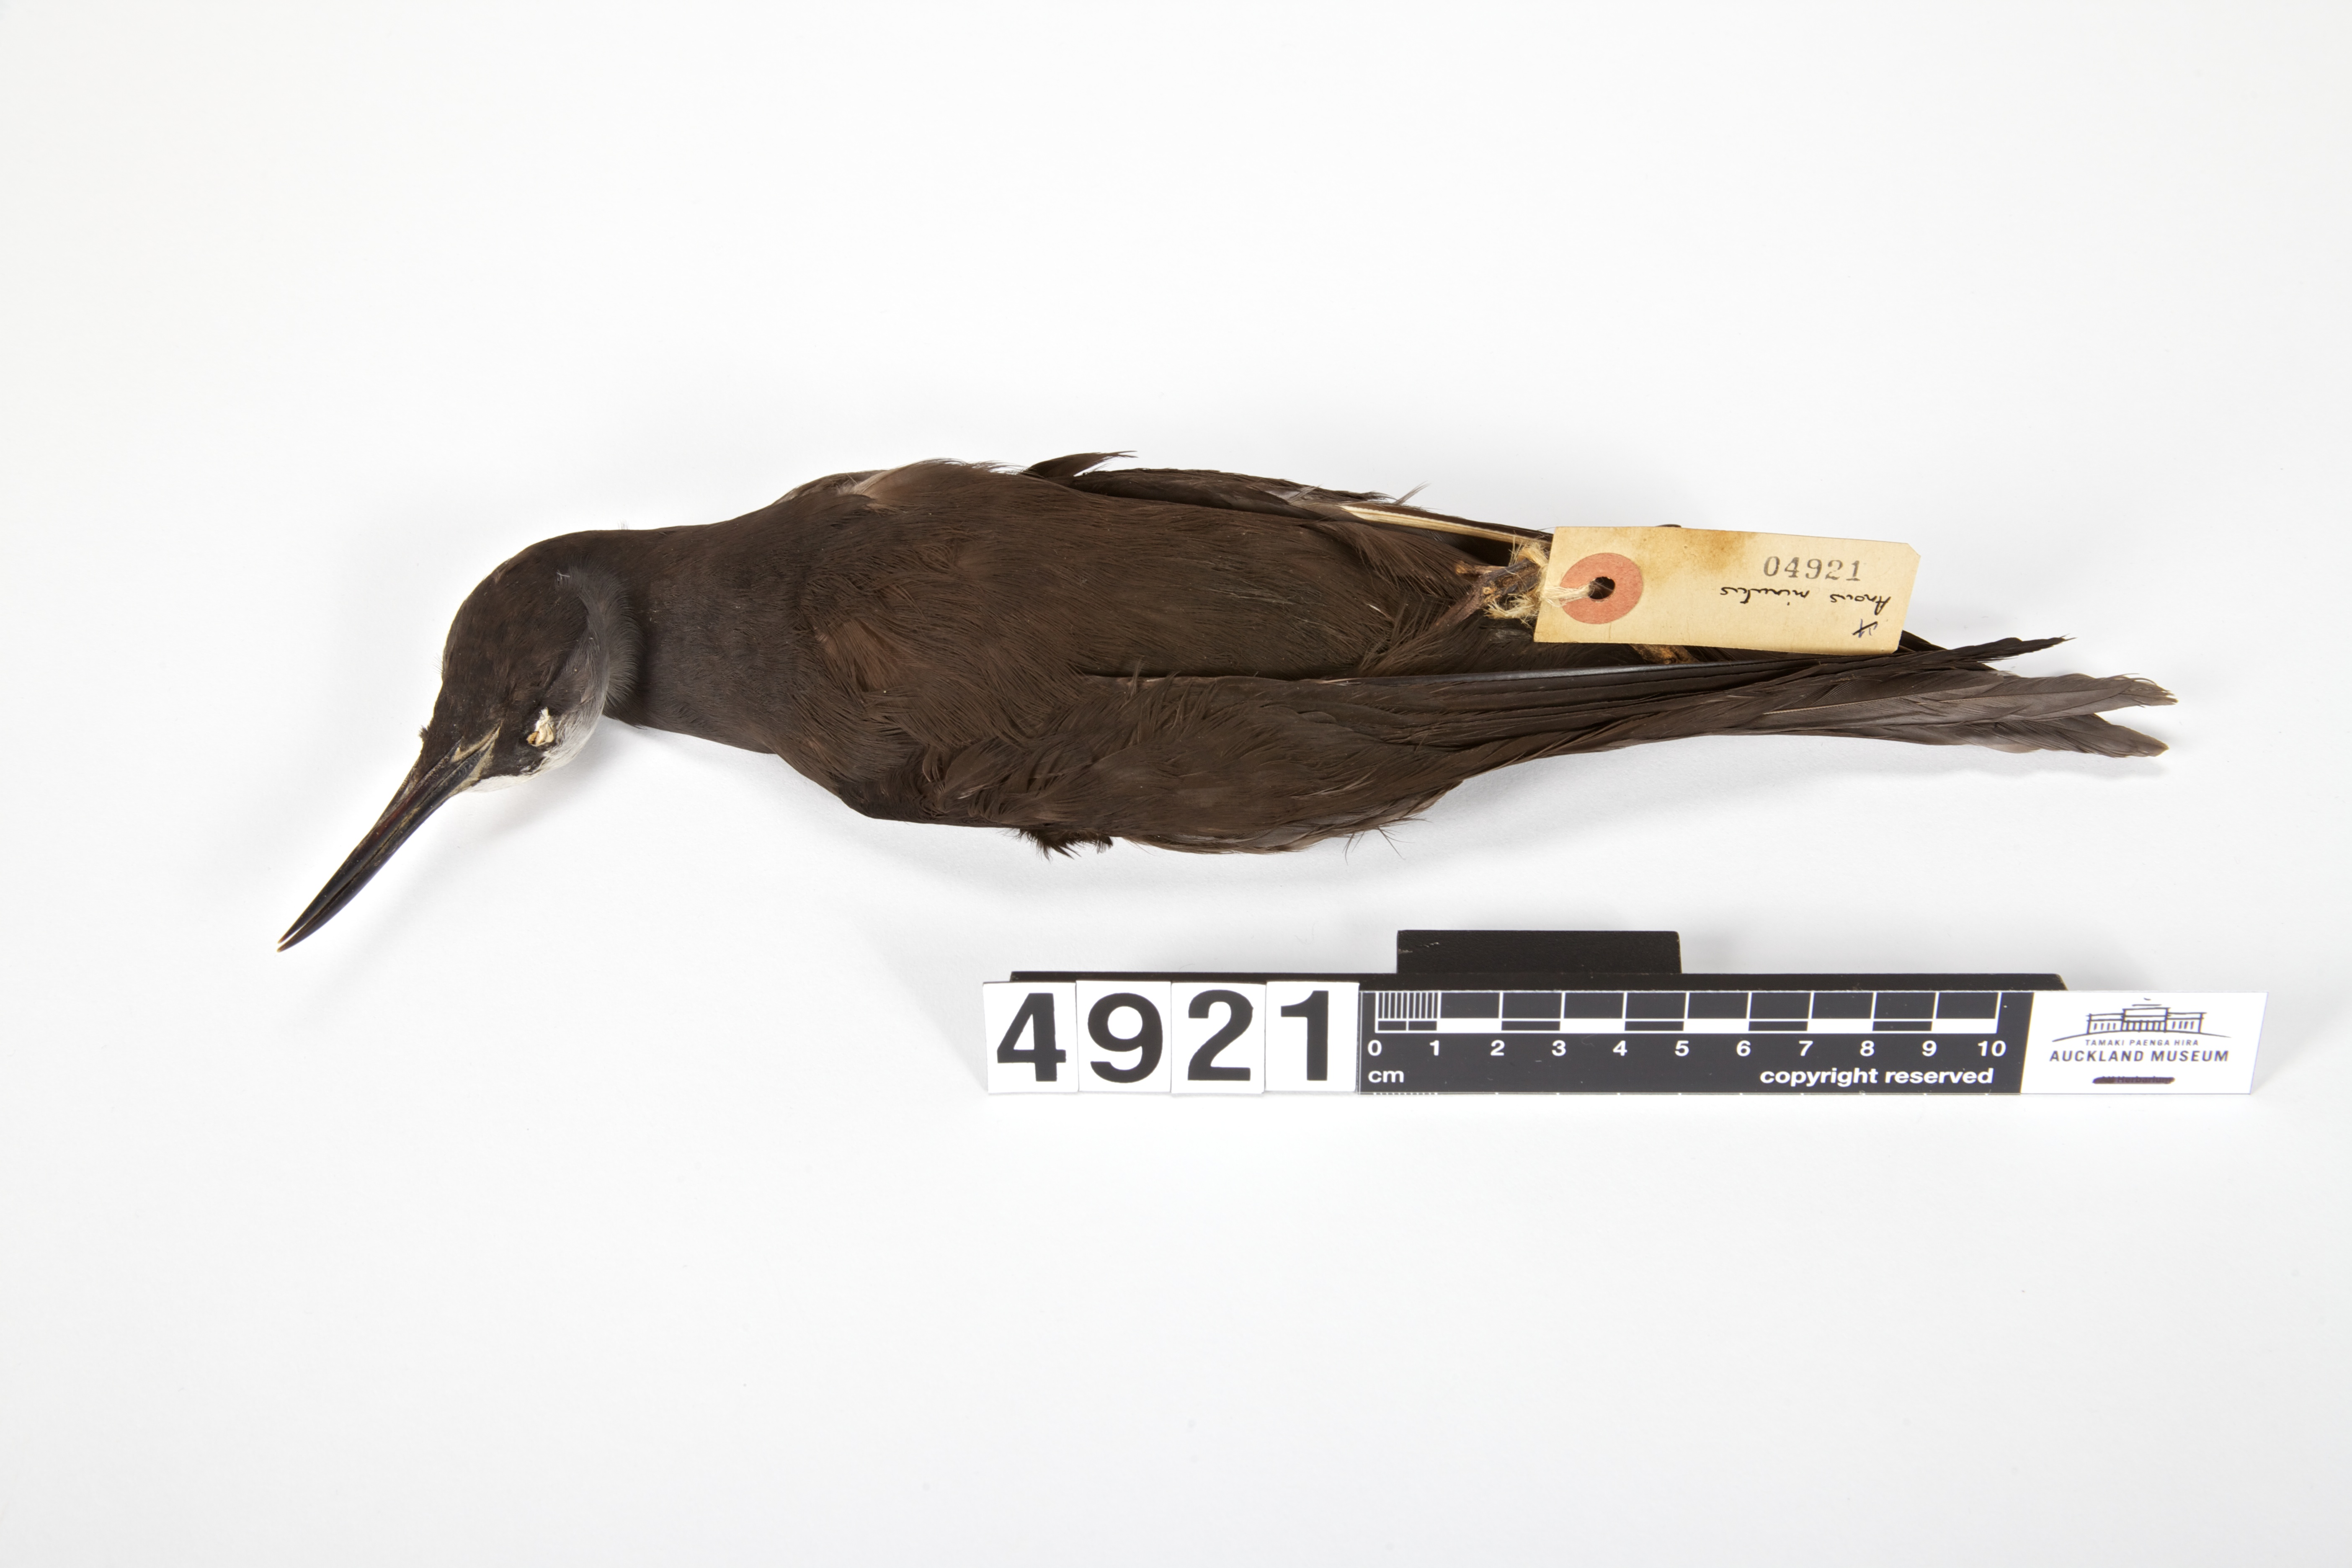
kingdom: Animalia
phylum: Chordata
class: Aves
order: Charadriiformes
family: Laridae
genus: Anous
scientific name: Anous minutus
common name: Black noddy
